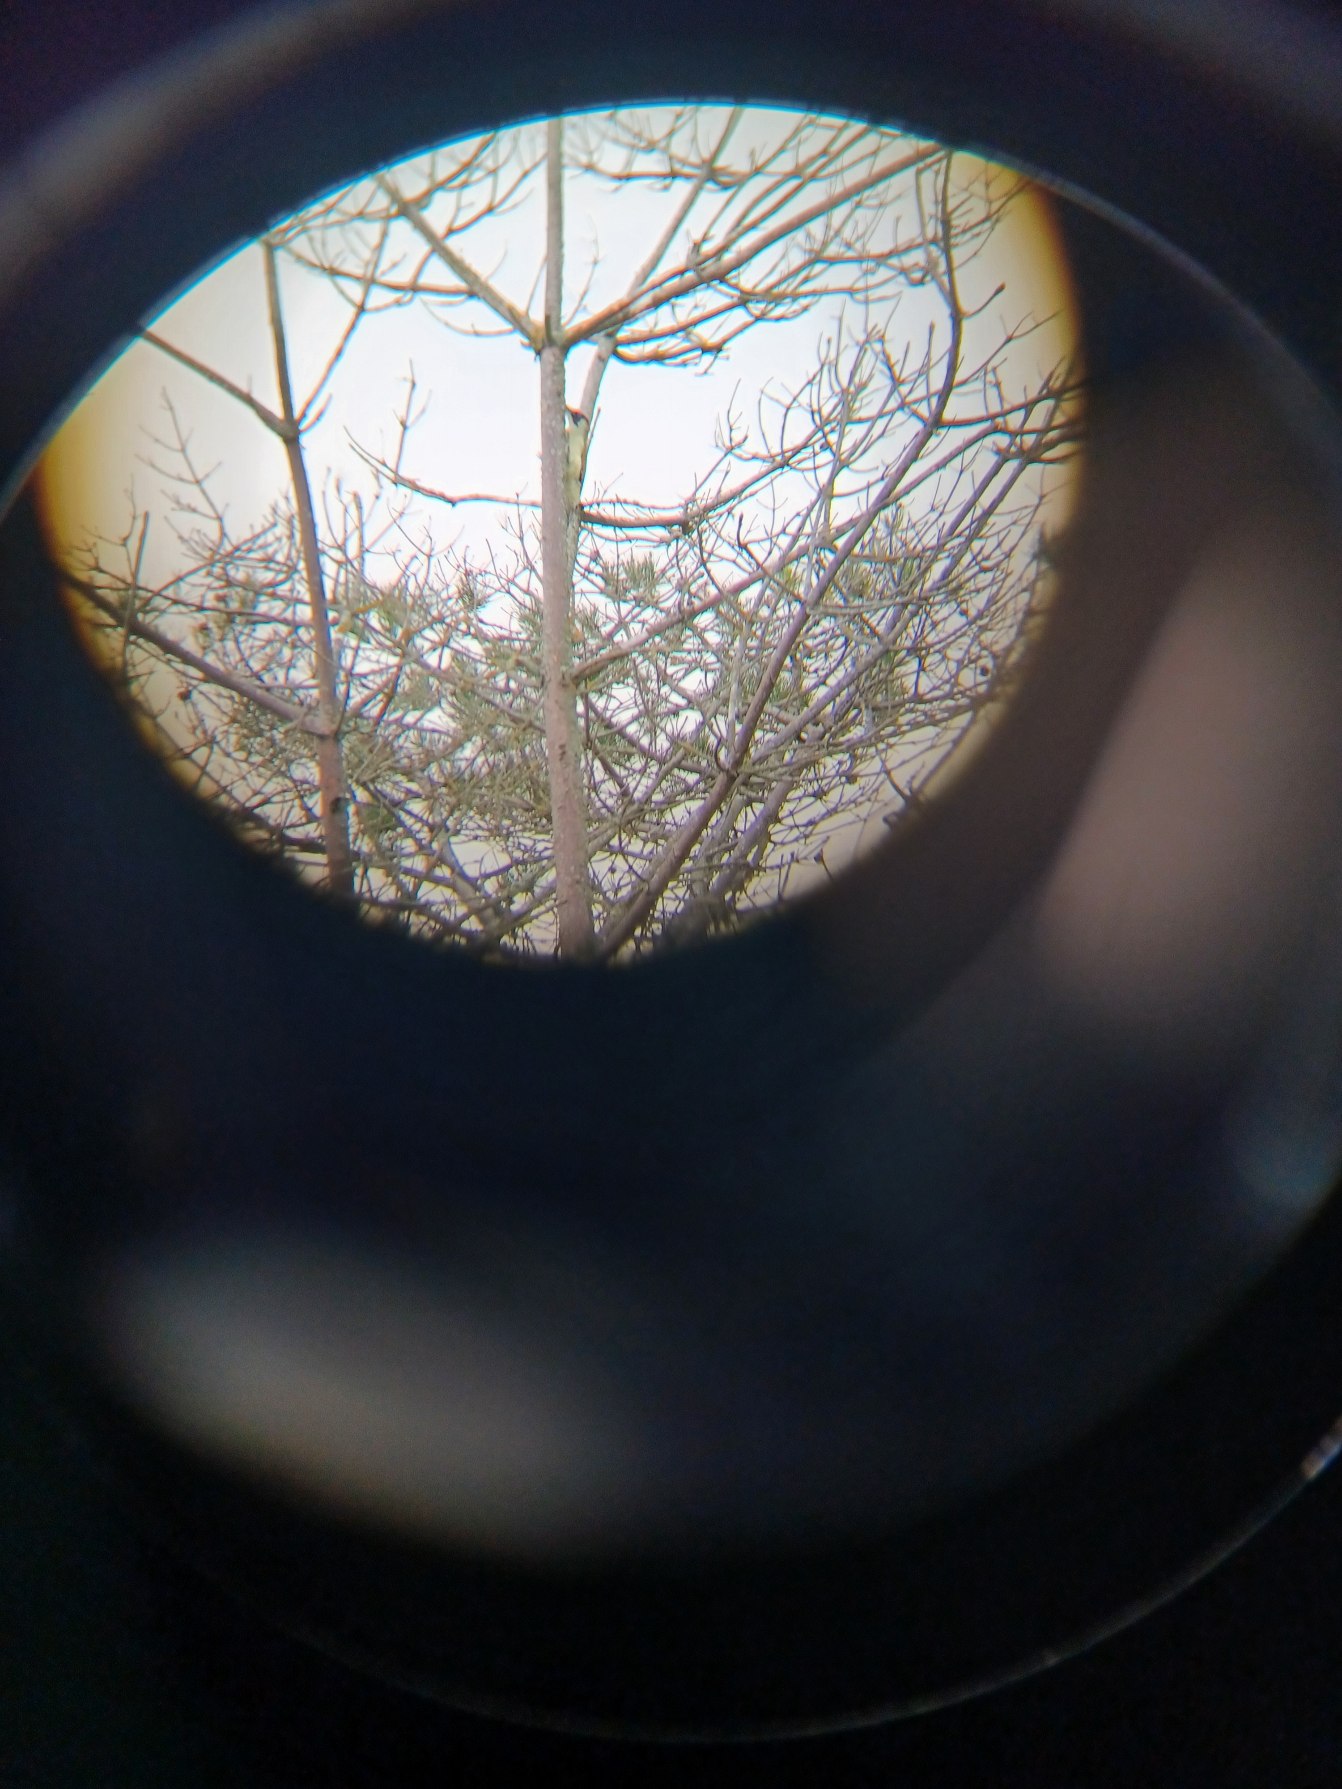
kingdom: Animalia
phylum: Chordata
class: Aves
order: Piciformes
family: Picidae
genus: Picus
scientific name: Picus viridis
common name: Grønspætte
